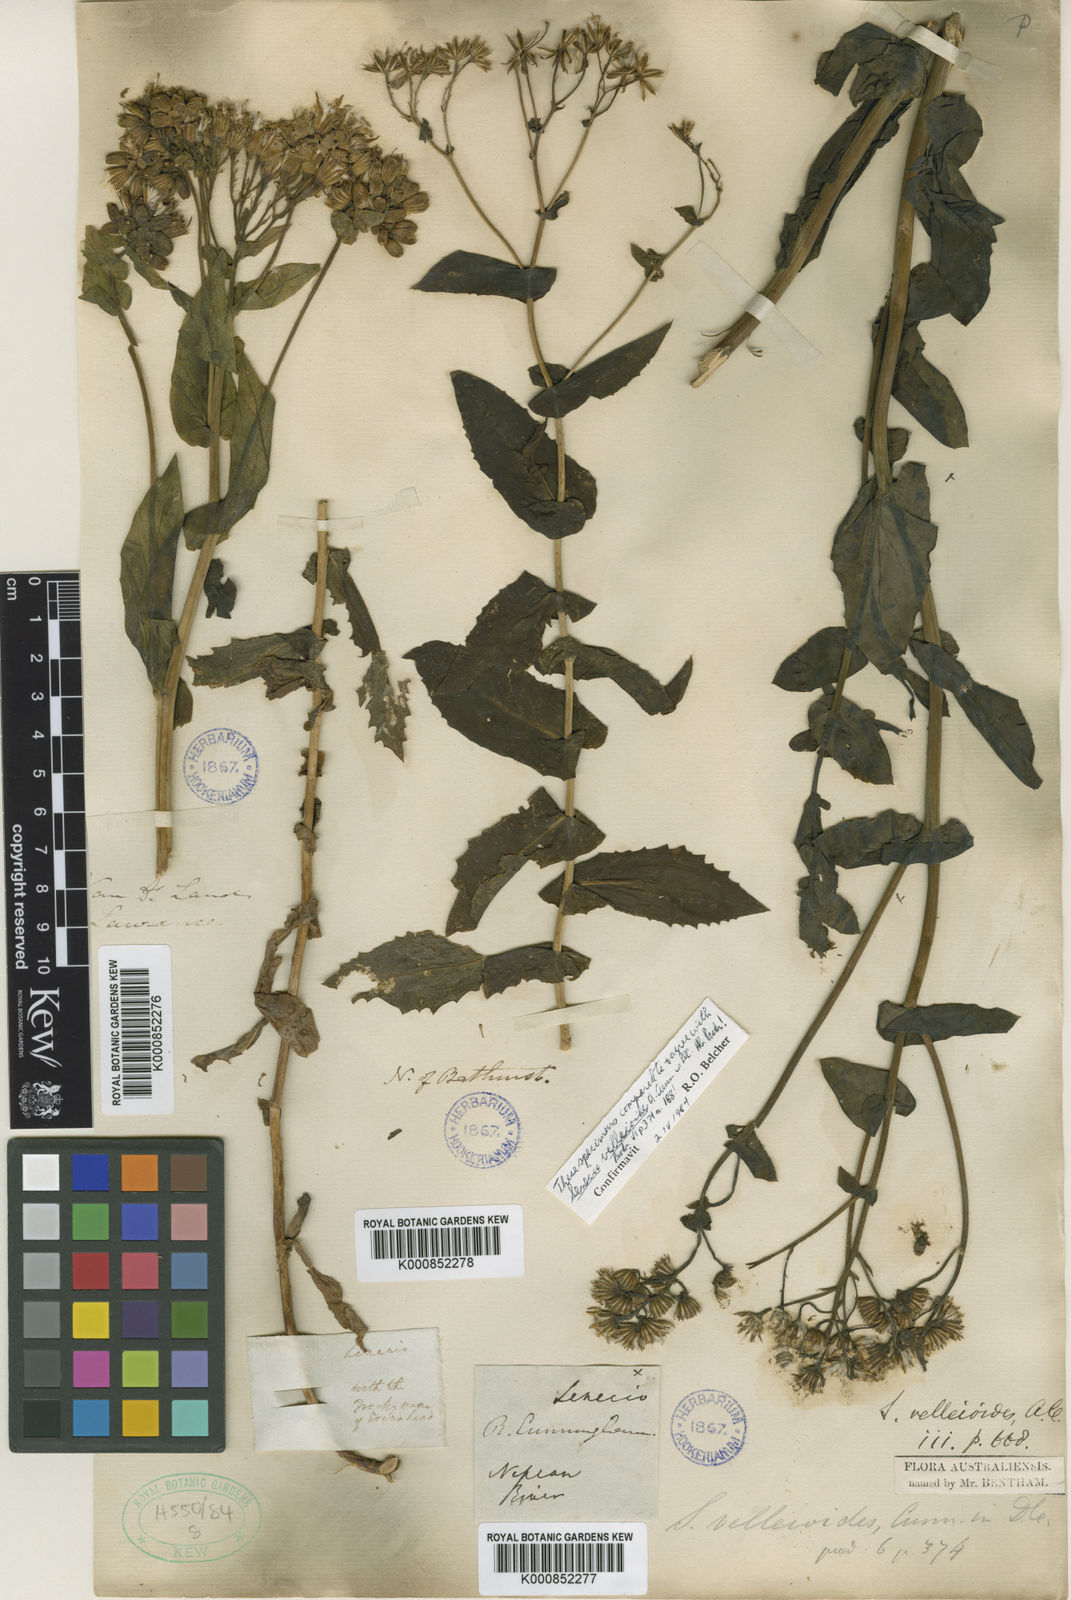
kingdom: Plantae
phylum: Tracheophyta
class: Magnoliopsida
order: Asterales
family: Asteraceae
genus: Lordhowea
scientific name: Lordhowea velleioides
